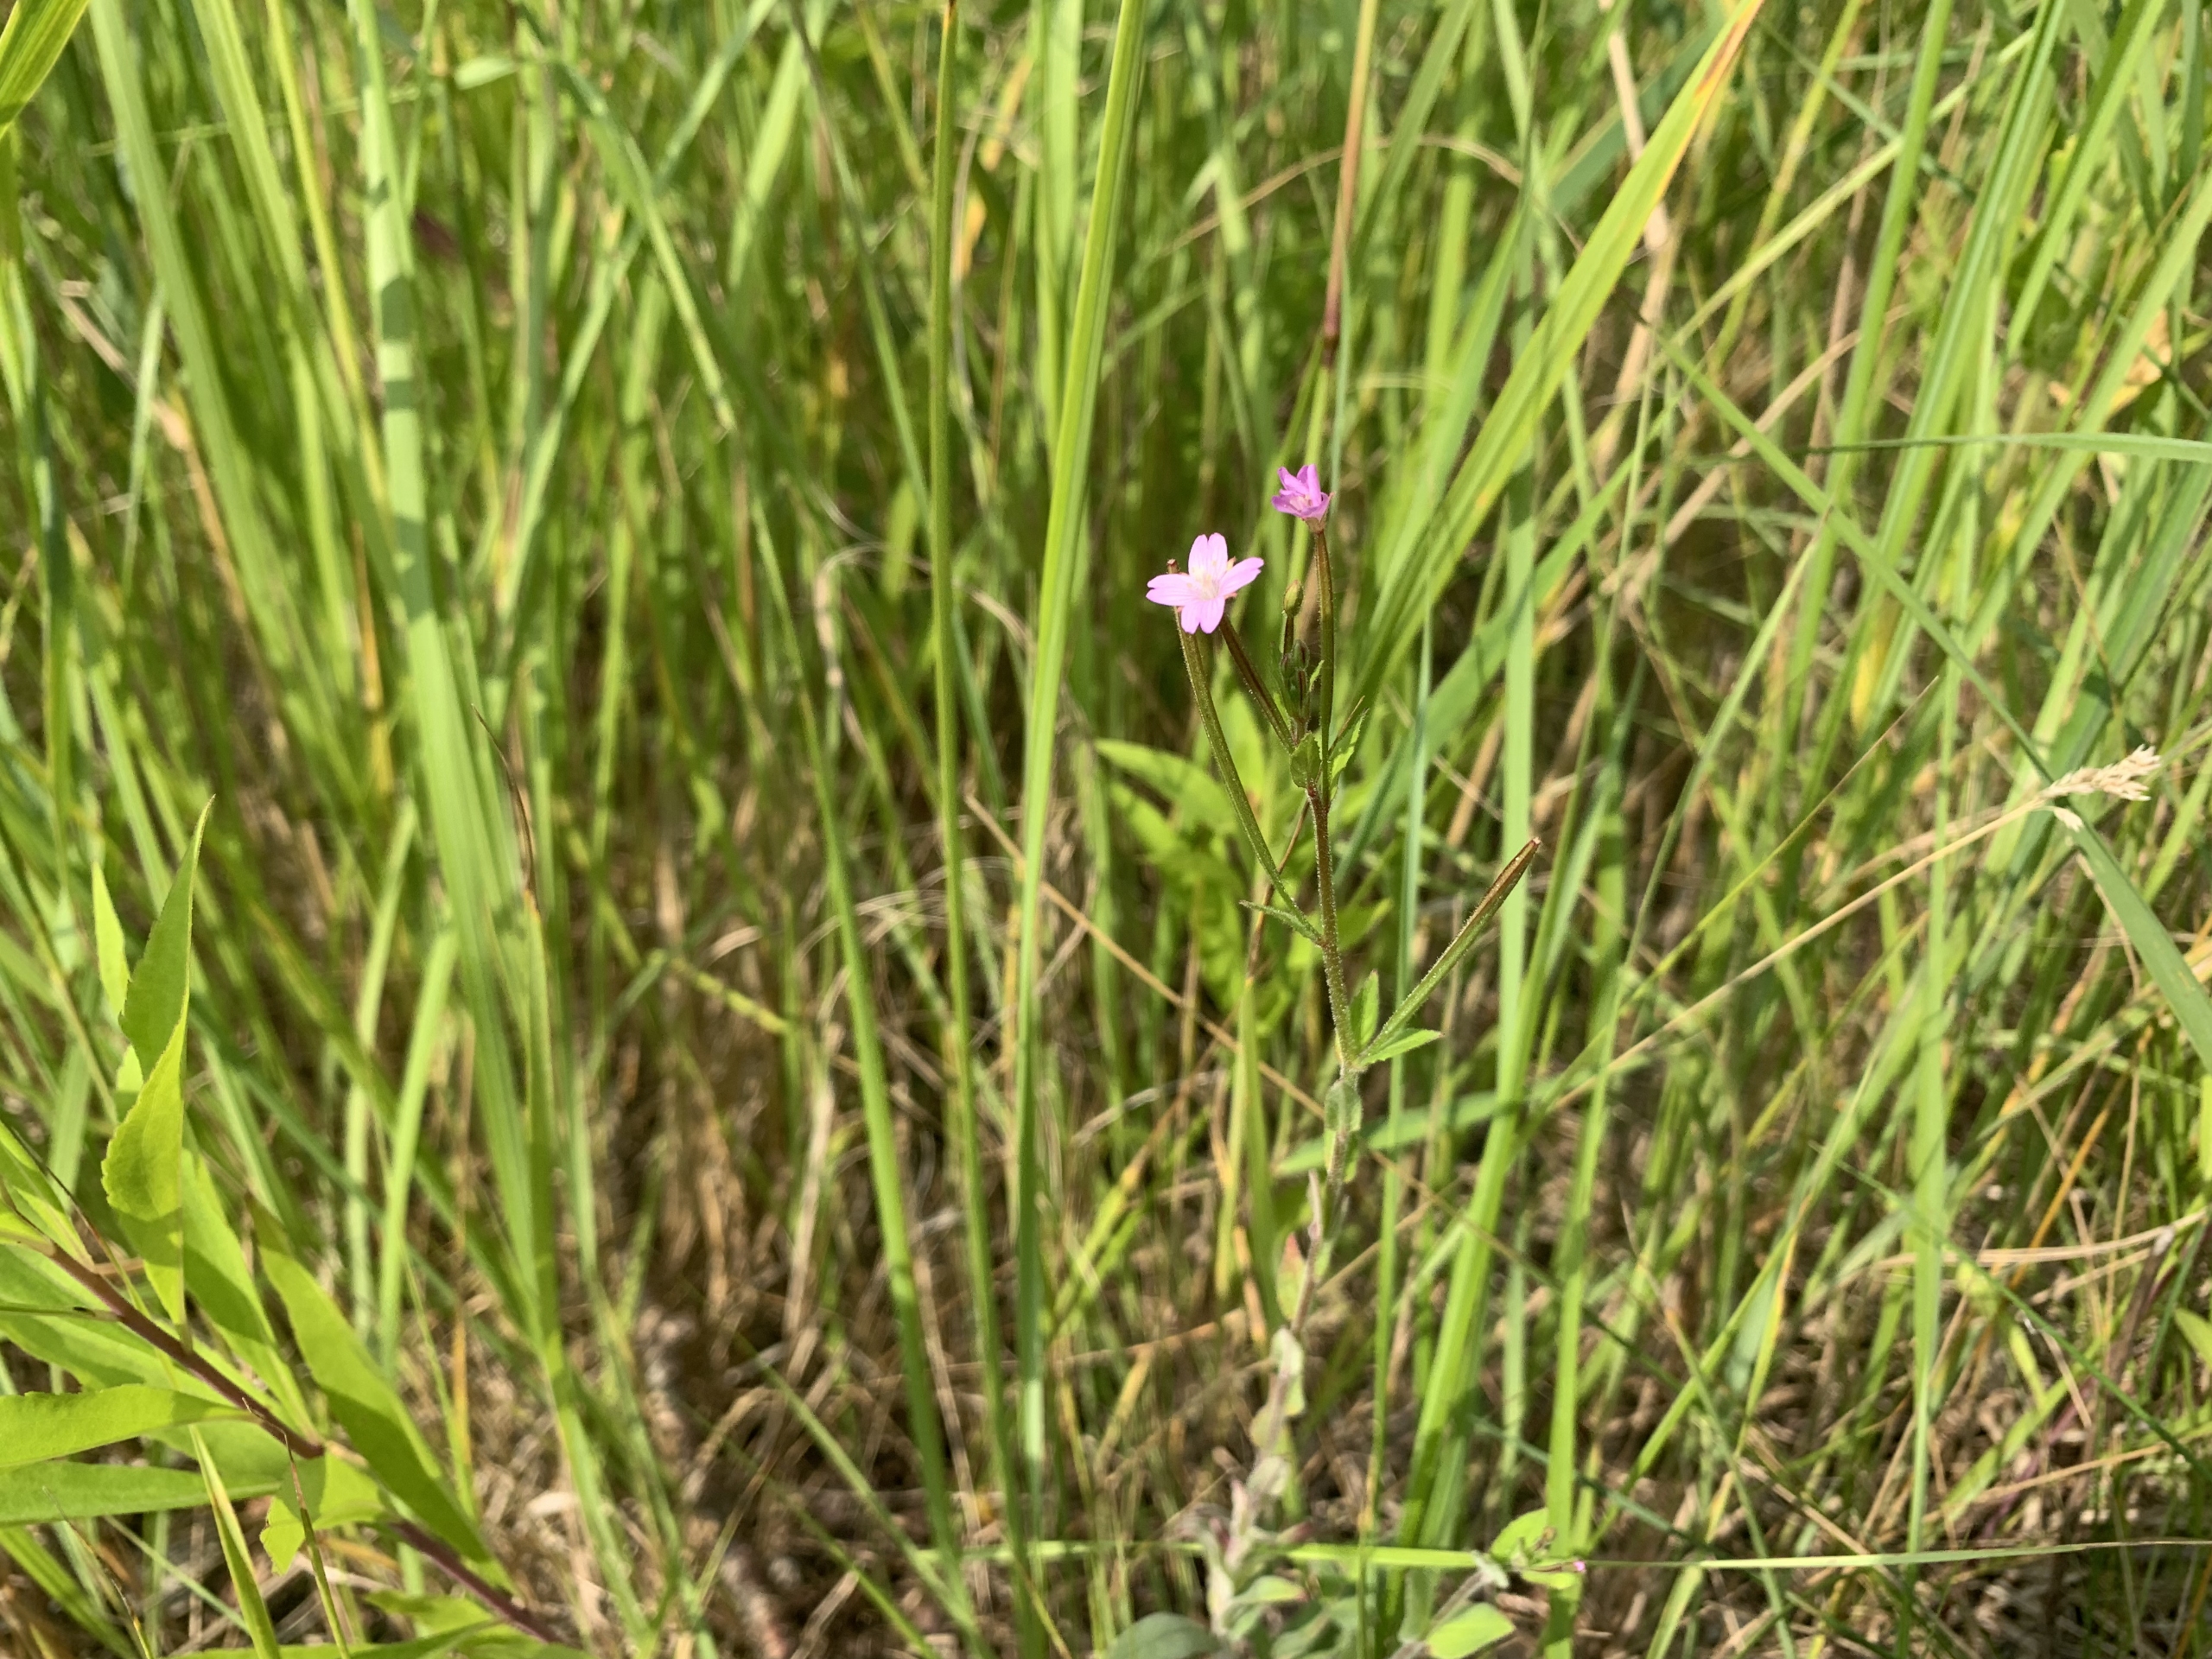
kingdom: Plantae
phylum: Tracheophyta
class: Magnoliopsida
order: Myrtales
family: Onagraceae
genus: Epilobium
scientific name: Epilobium parviflorum
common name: Dunet dueurt
